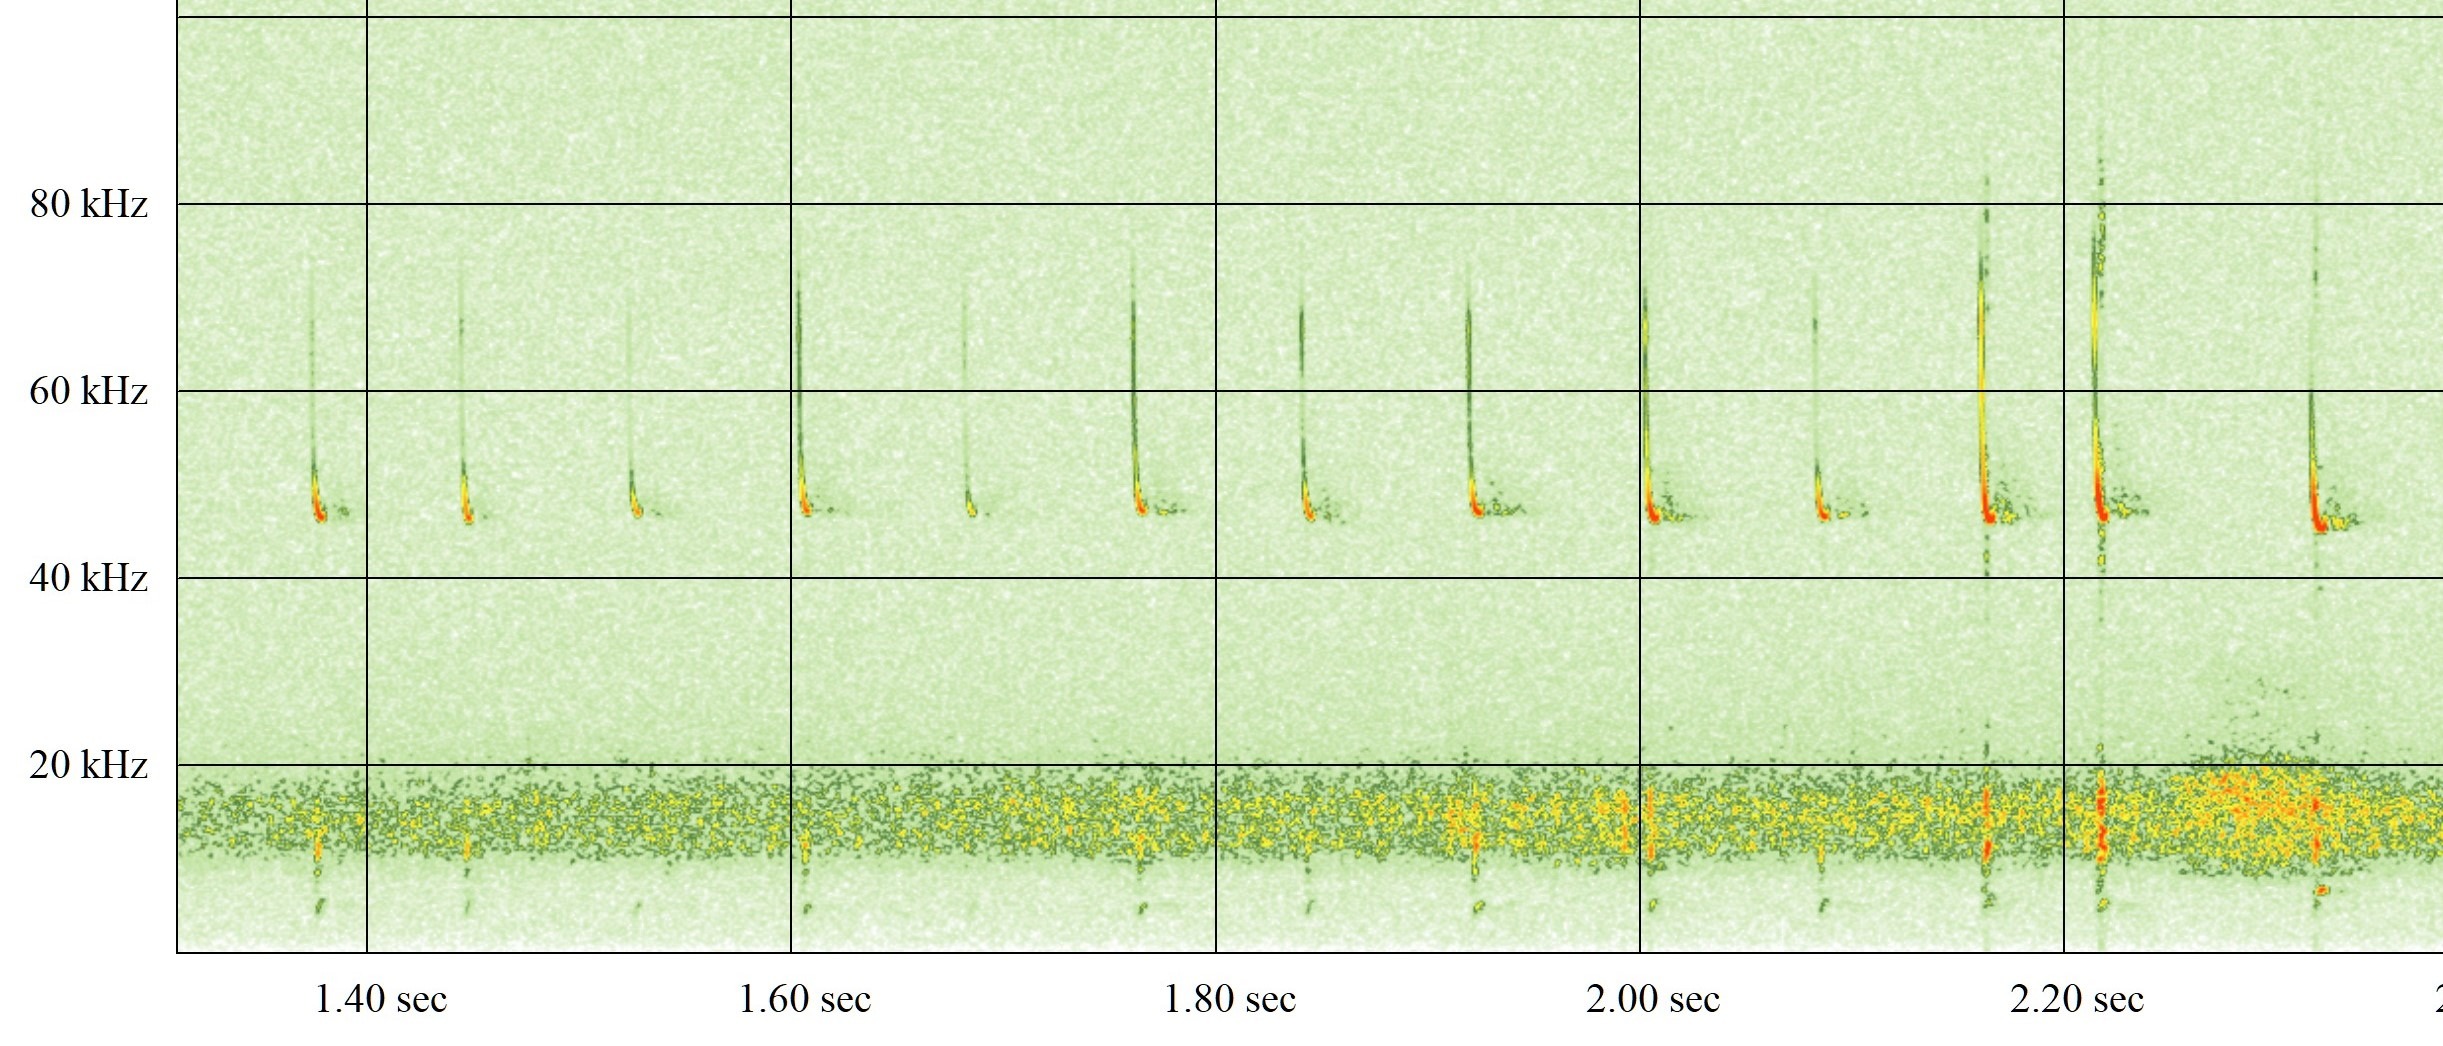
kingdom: Animalia
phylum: Chordata
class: Mammalia
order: Chiroptera
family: Vespertilionidae
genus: Pipistrellus
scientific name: Pipistrellus pipistrellus
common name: Pipistrelflagermus
